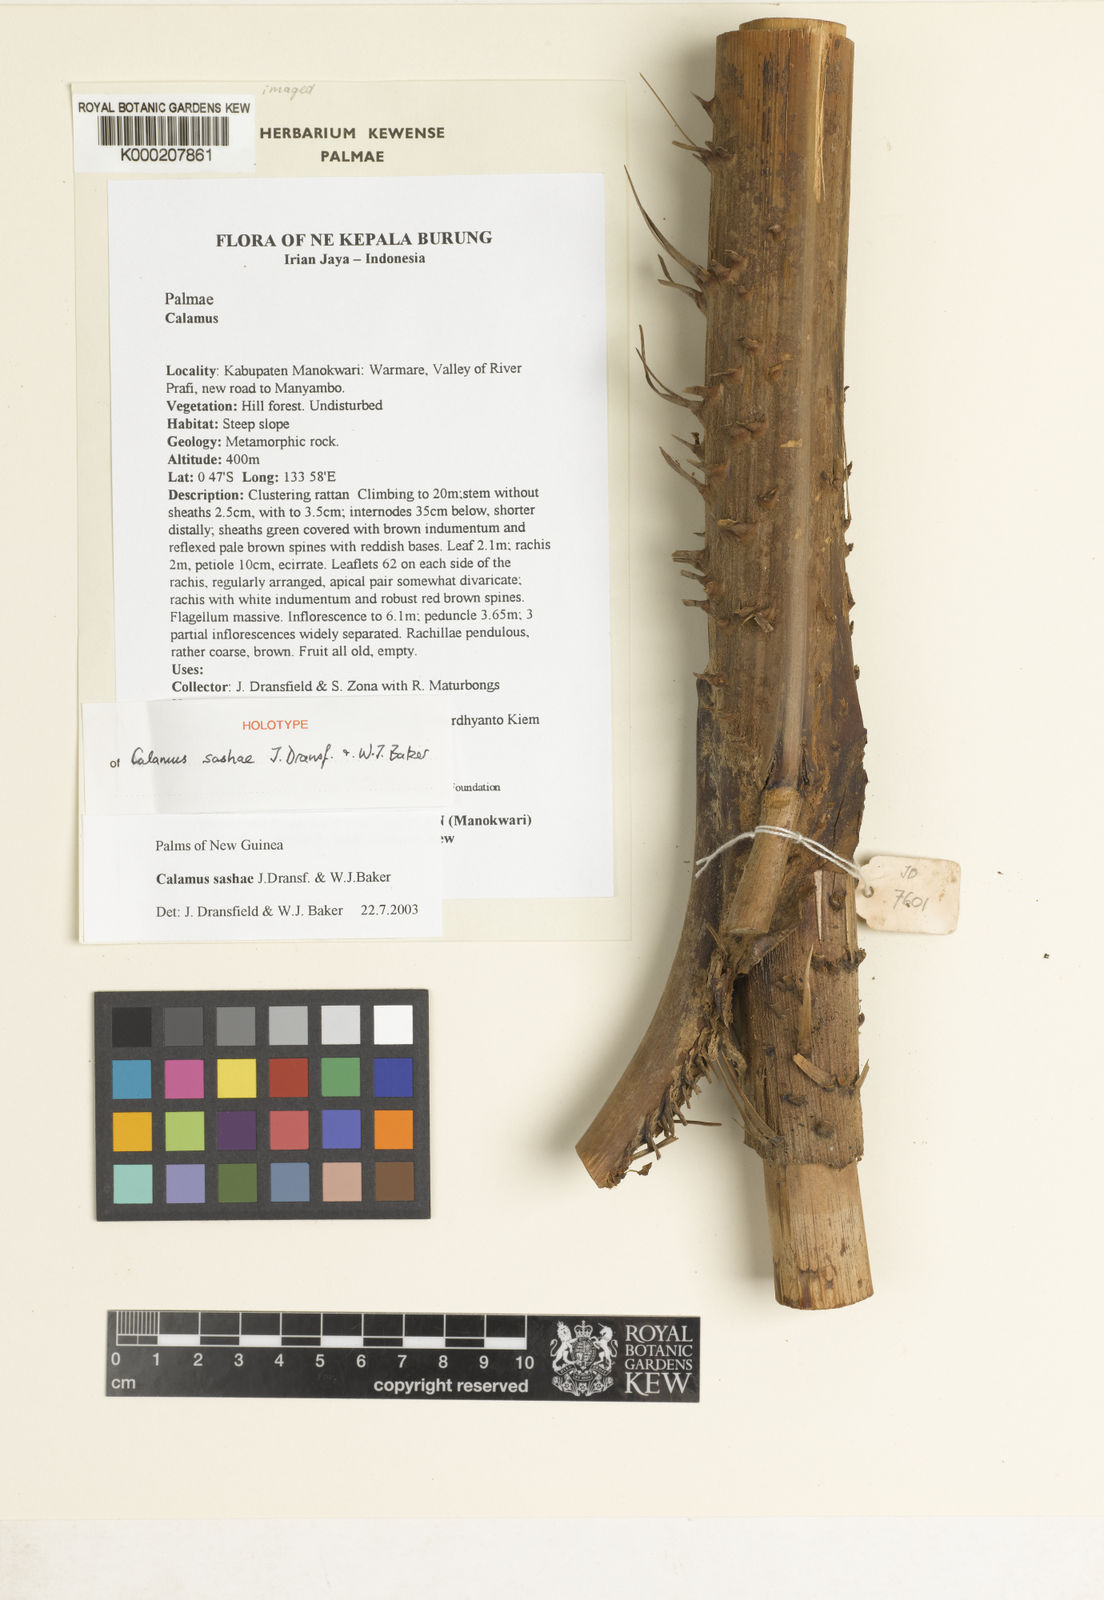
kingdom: Plantae
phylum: Tracheophyta
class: Liliopsida
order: Arecales
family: Arecaceae
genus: Calamus
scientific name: Calamus sashae
